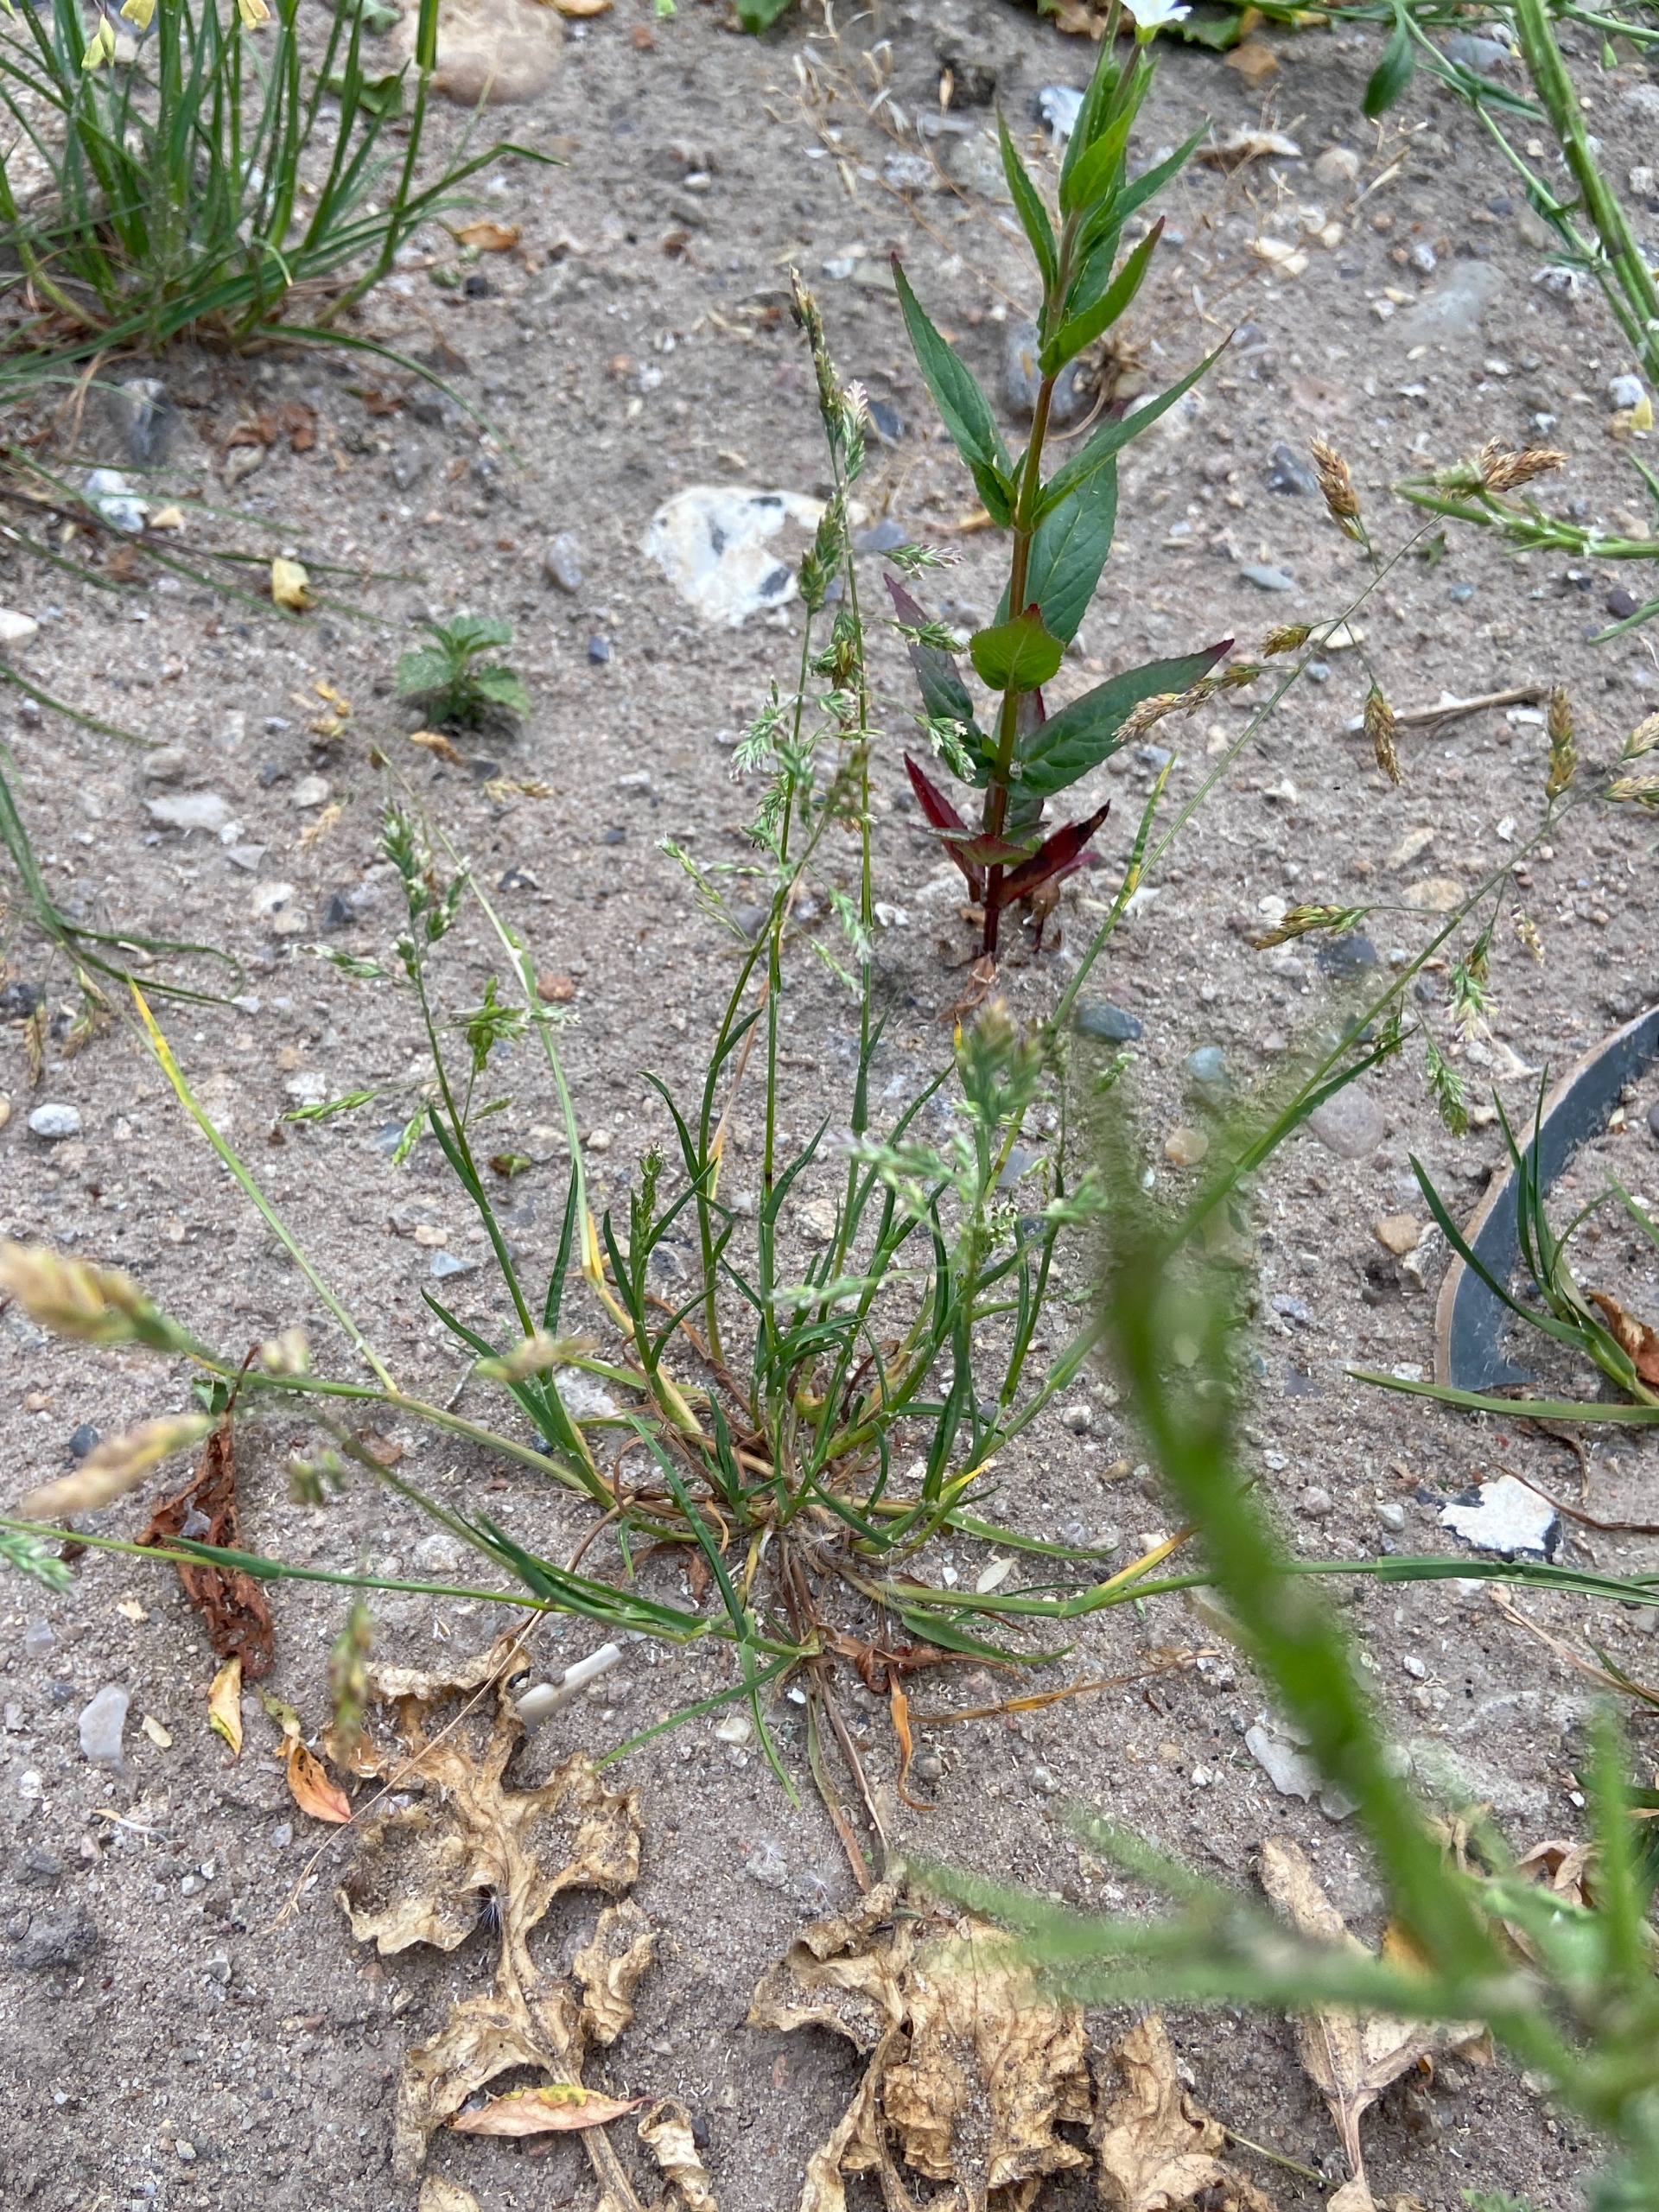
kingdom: Plantae
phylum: Tracheophyta
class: Liliopsida
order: Poales
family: Poaceae
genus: Poa
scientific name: Poa annua
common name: Enårig rapgræs
